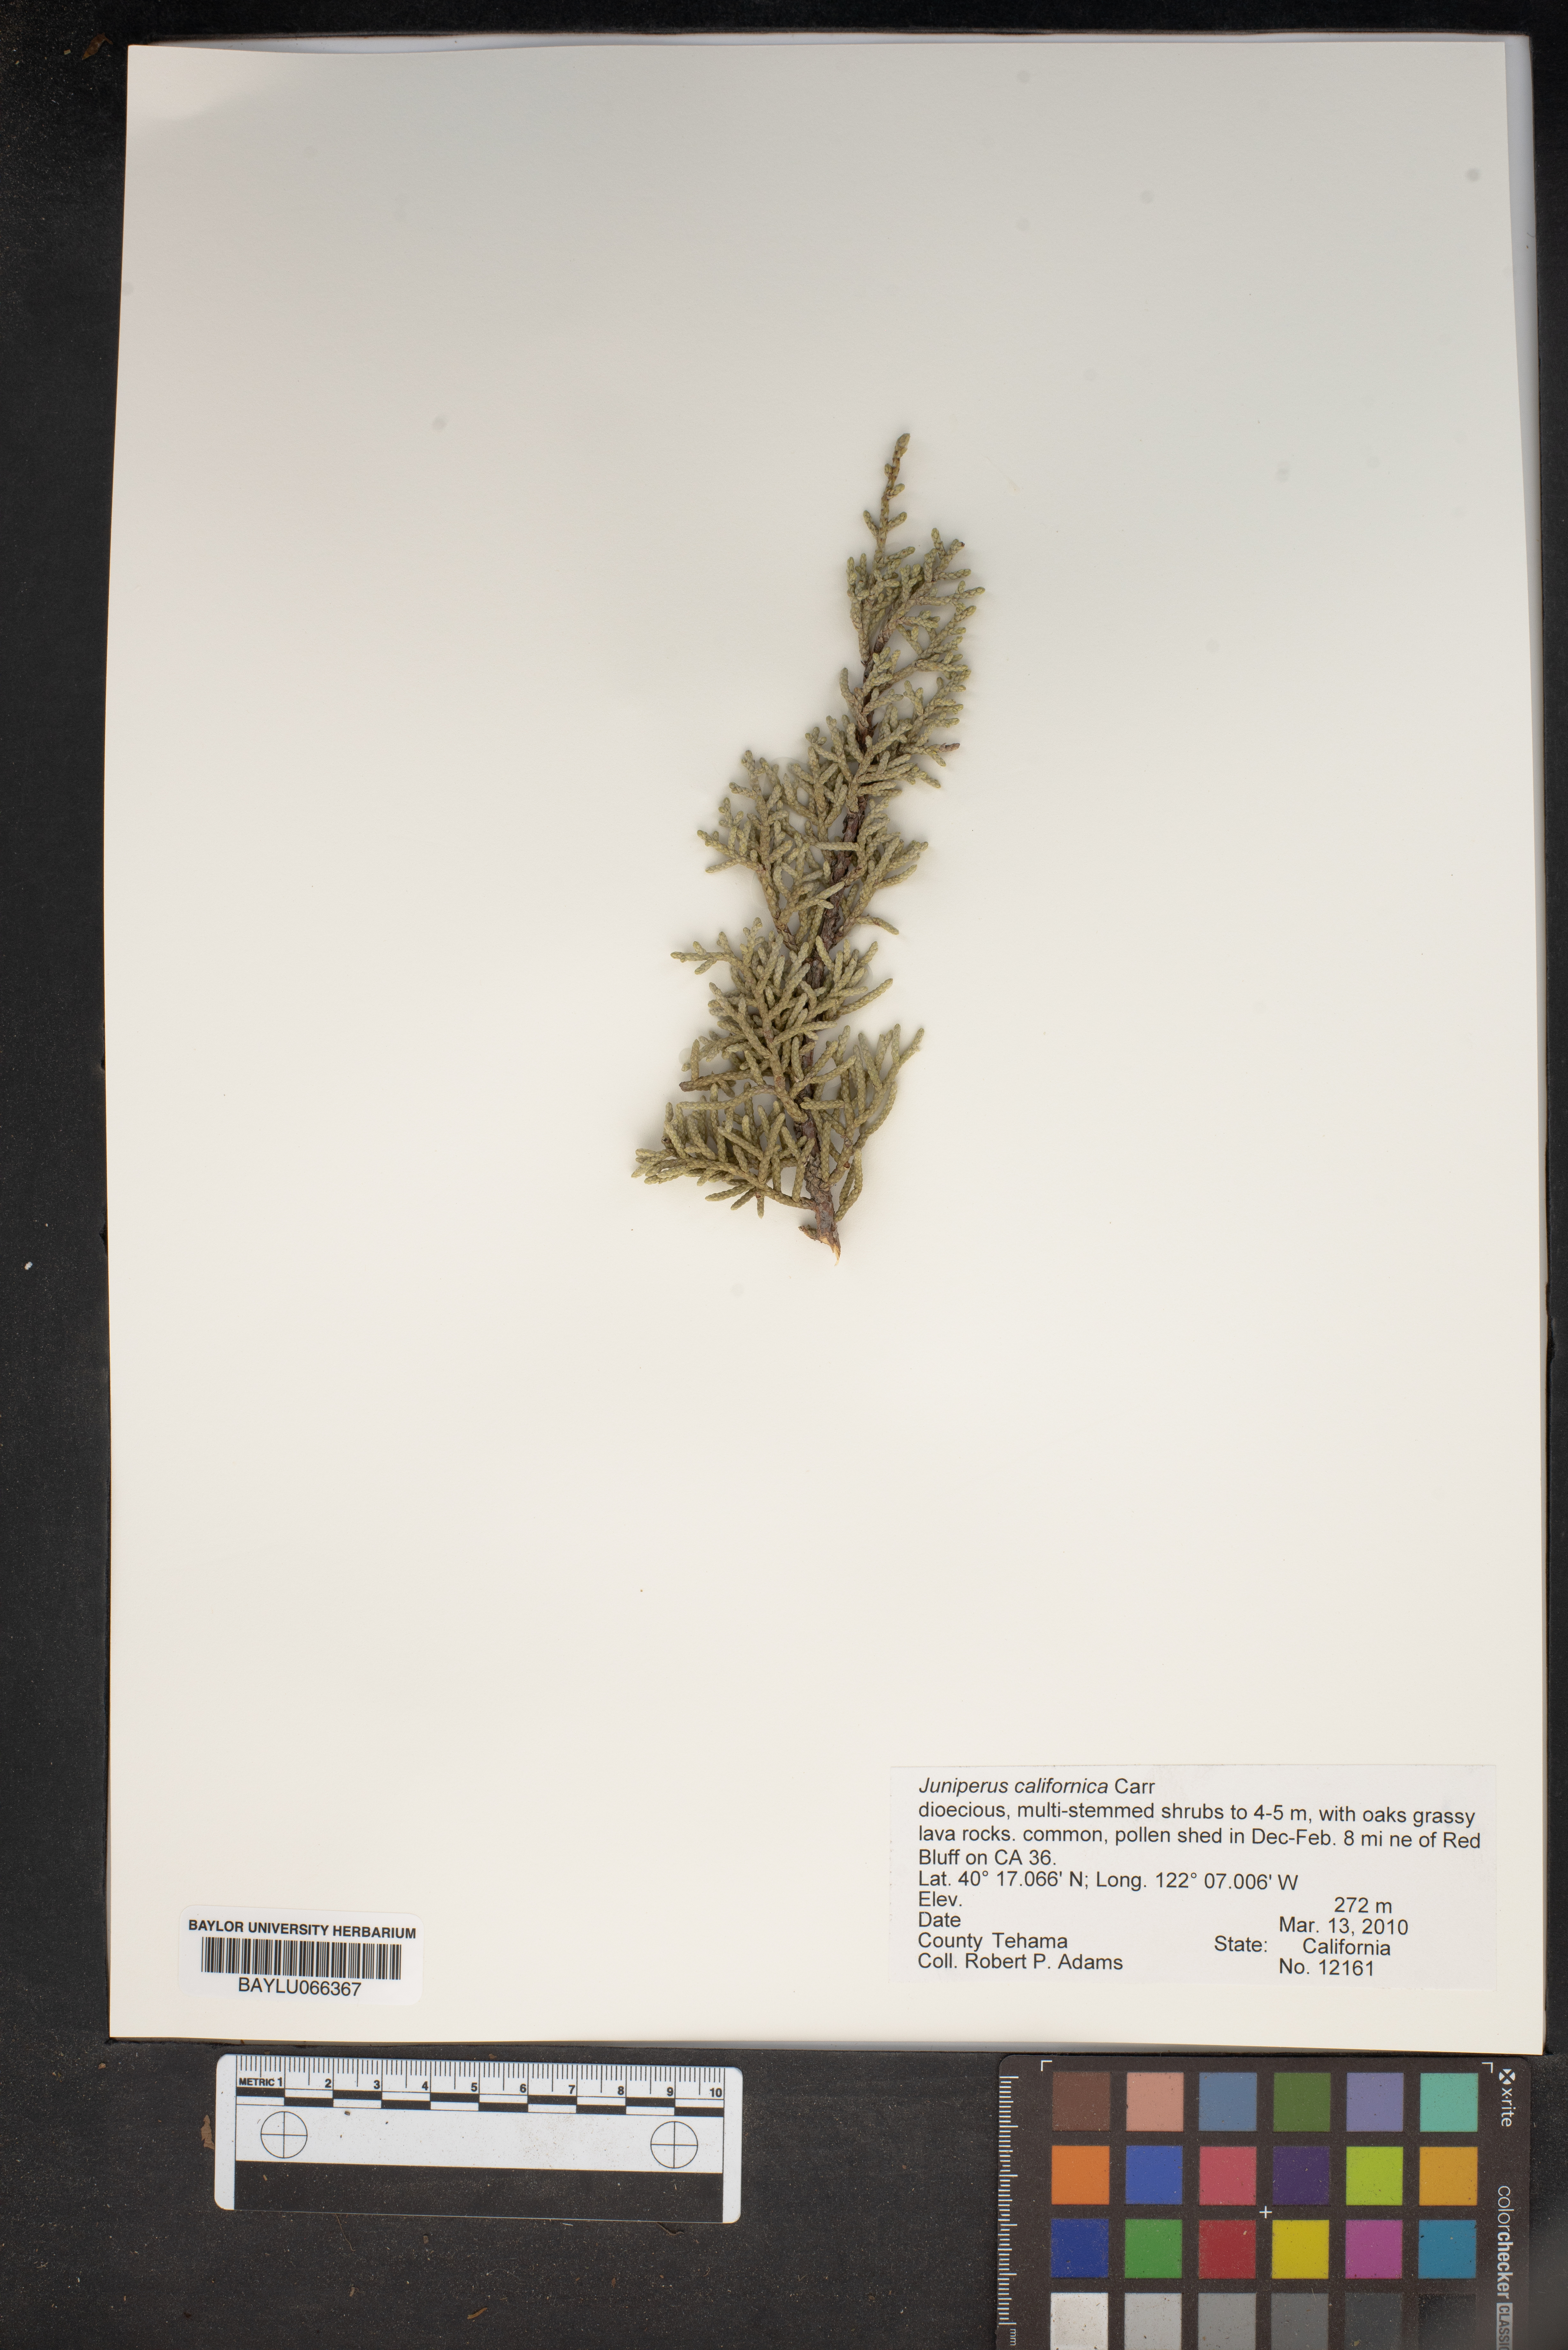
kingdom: Plantae
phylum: Tracheophyta
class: Pinopsida
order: Pinales
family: Cupressaceae
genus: Juniperus
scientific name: Juniperus californica
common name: California juniper
